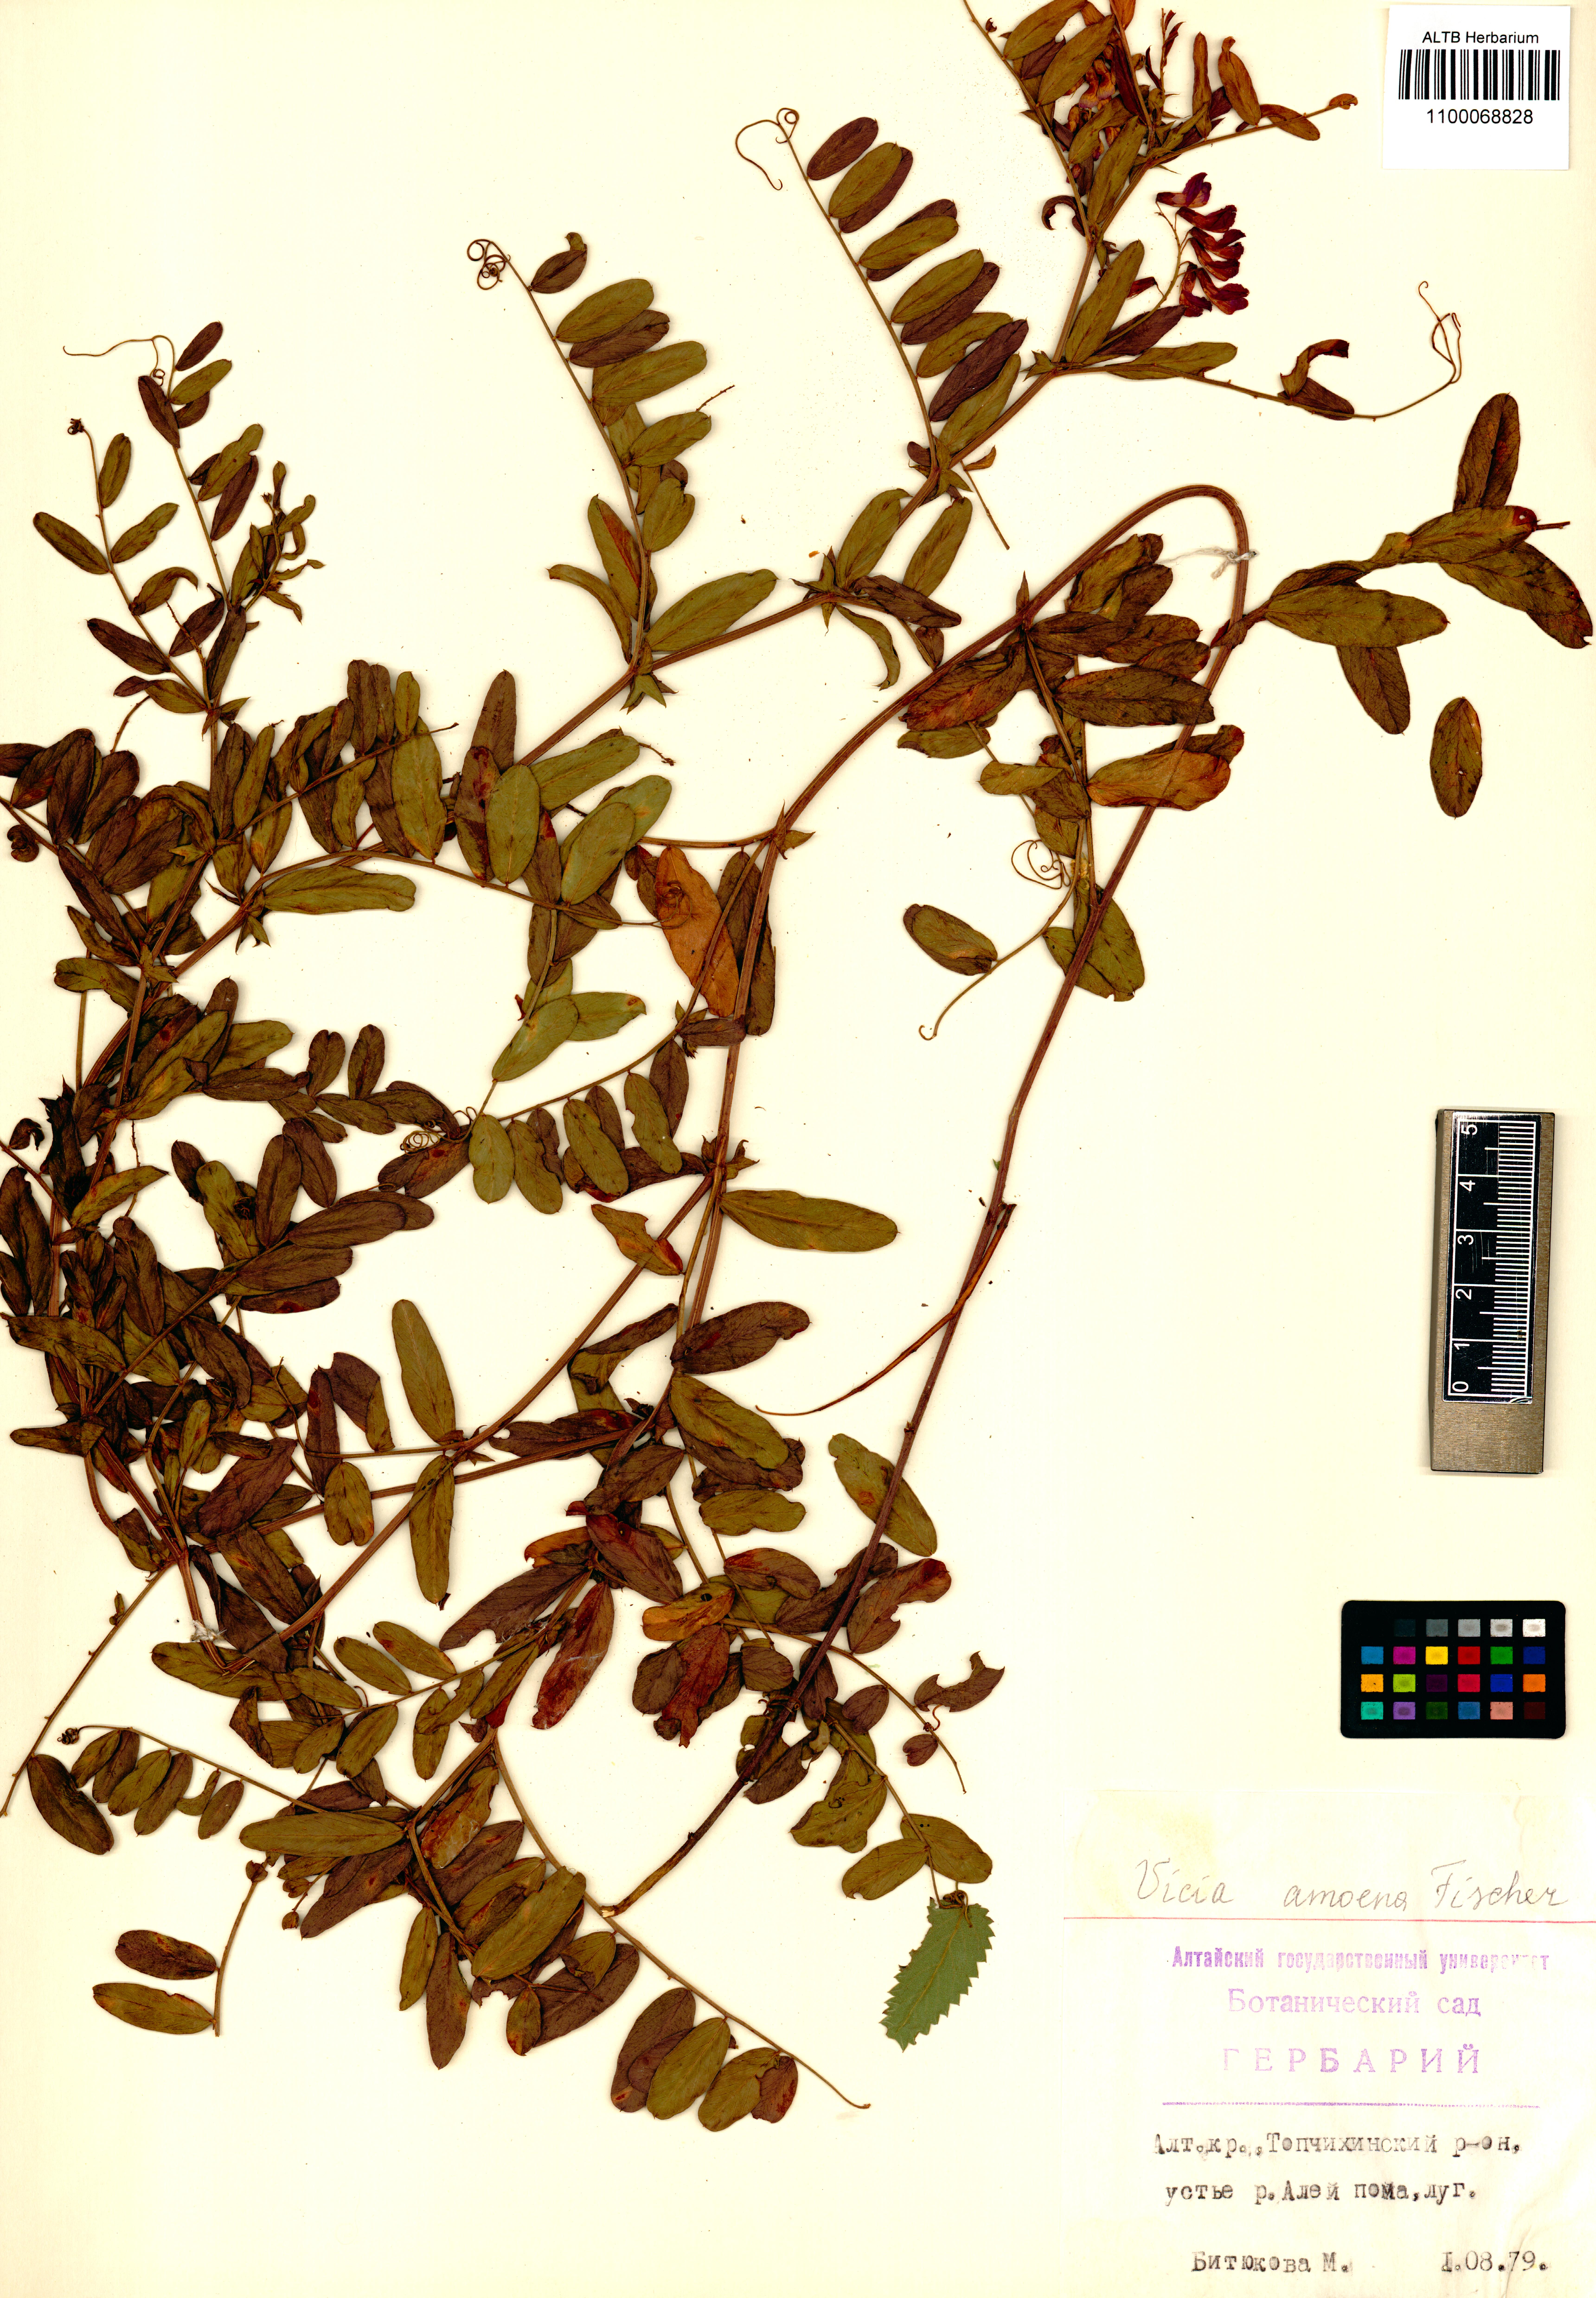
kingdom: Plantae
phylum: Tracheophyta
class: Magnoliopsida
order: Fabales
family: Fabaceae
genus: Vicia
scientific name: Vicia amoena
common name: Cheder ebs
